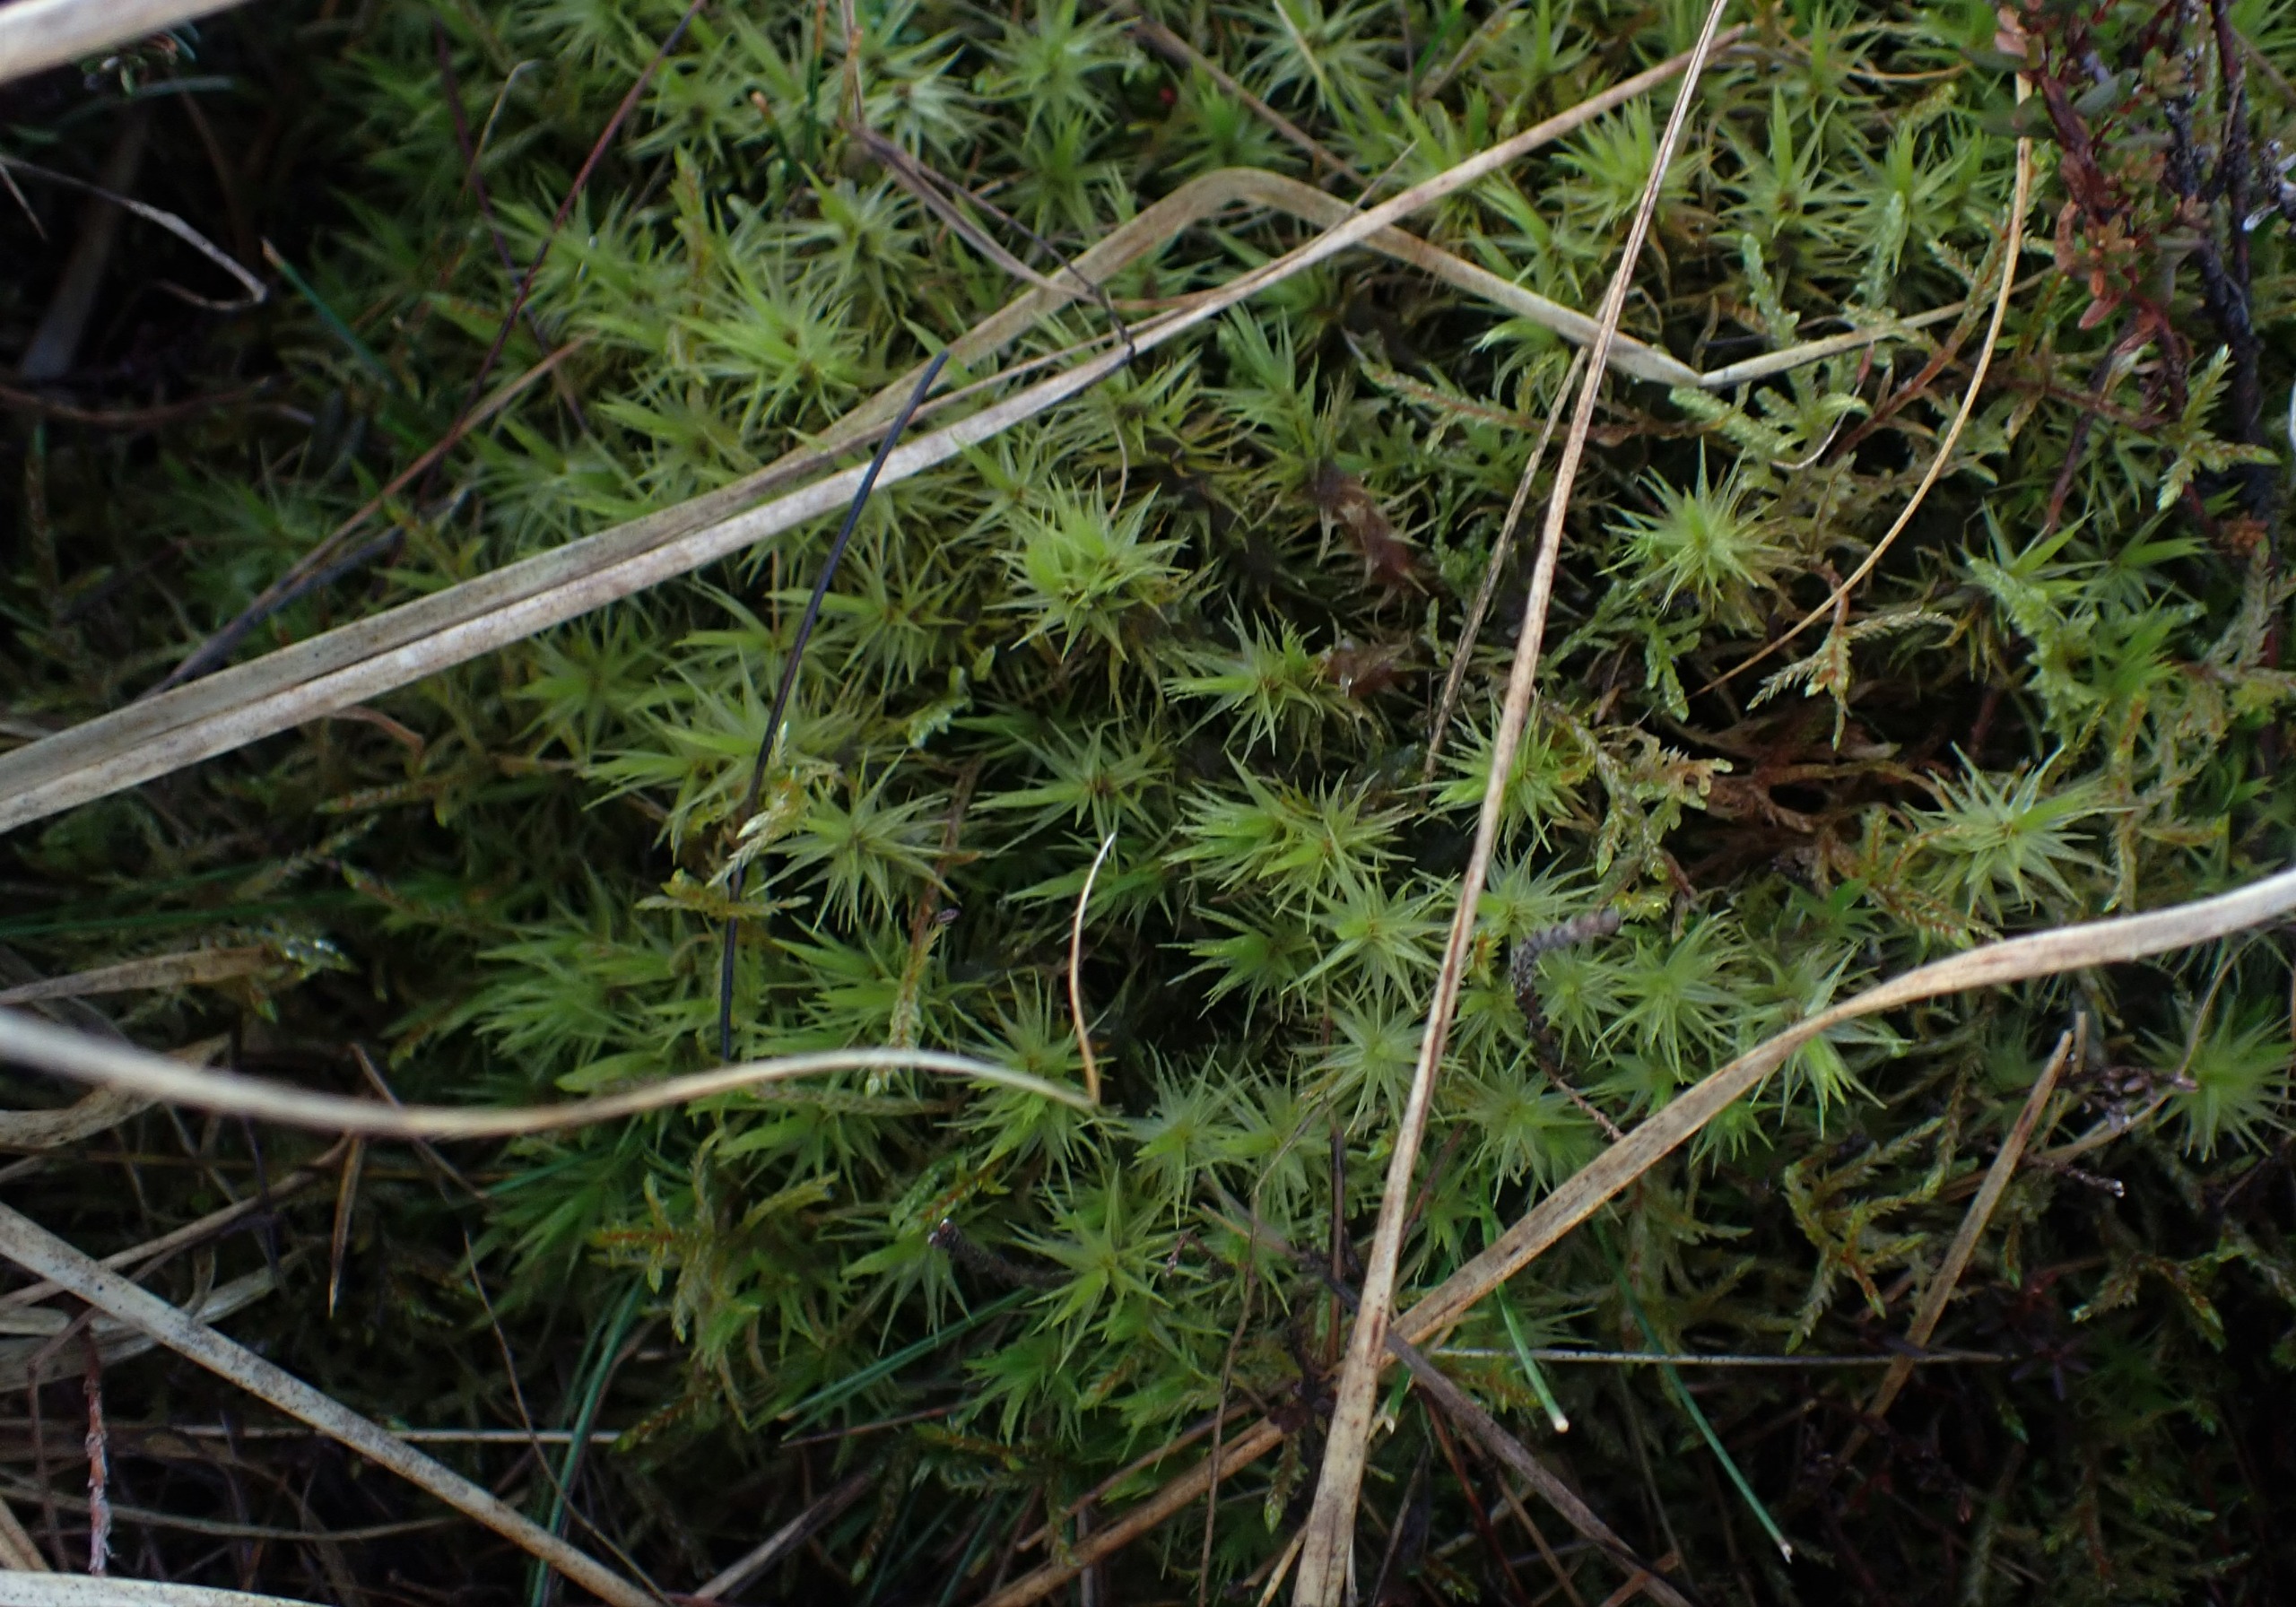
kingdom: Plantae
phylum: Bryophyta
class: Bryopsida
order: Dicranales
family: Dicranaceae
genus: Dicranum
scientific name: Dicranum polysetum
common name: Bølgebladet kløvtand
